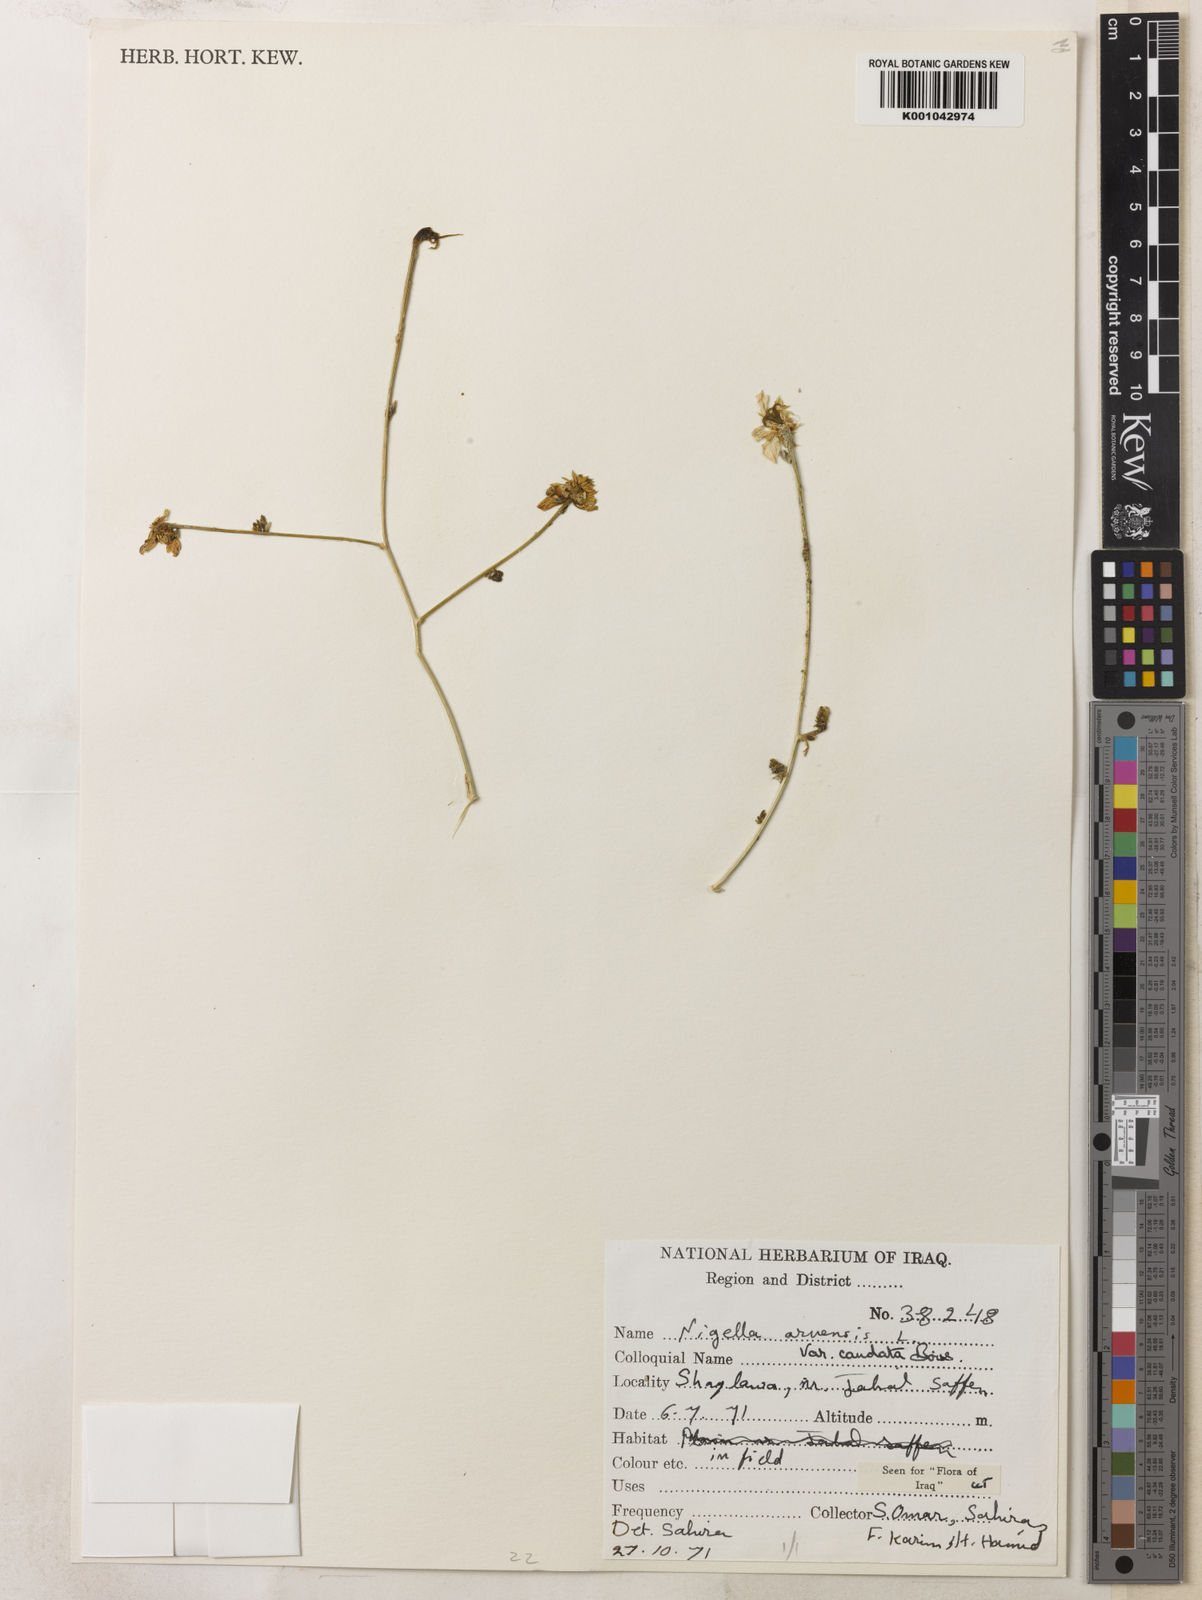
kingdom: Plantae
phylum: Tracheophyta
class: Magnoliopsida
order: Ranunculales
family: Ranunculaceae
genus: Nigella
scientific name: Nigella arvensis
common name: Wild fennel-flower
